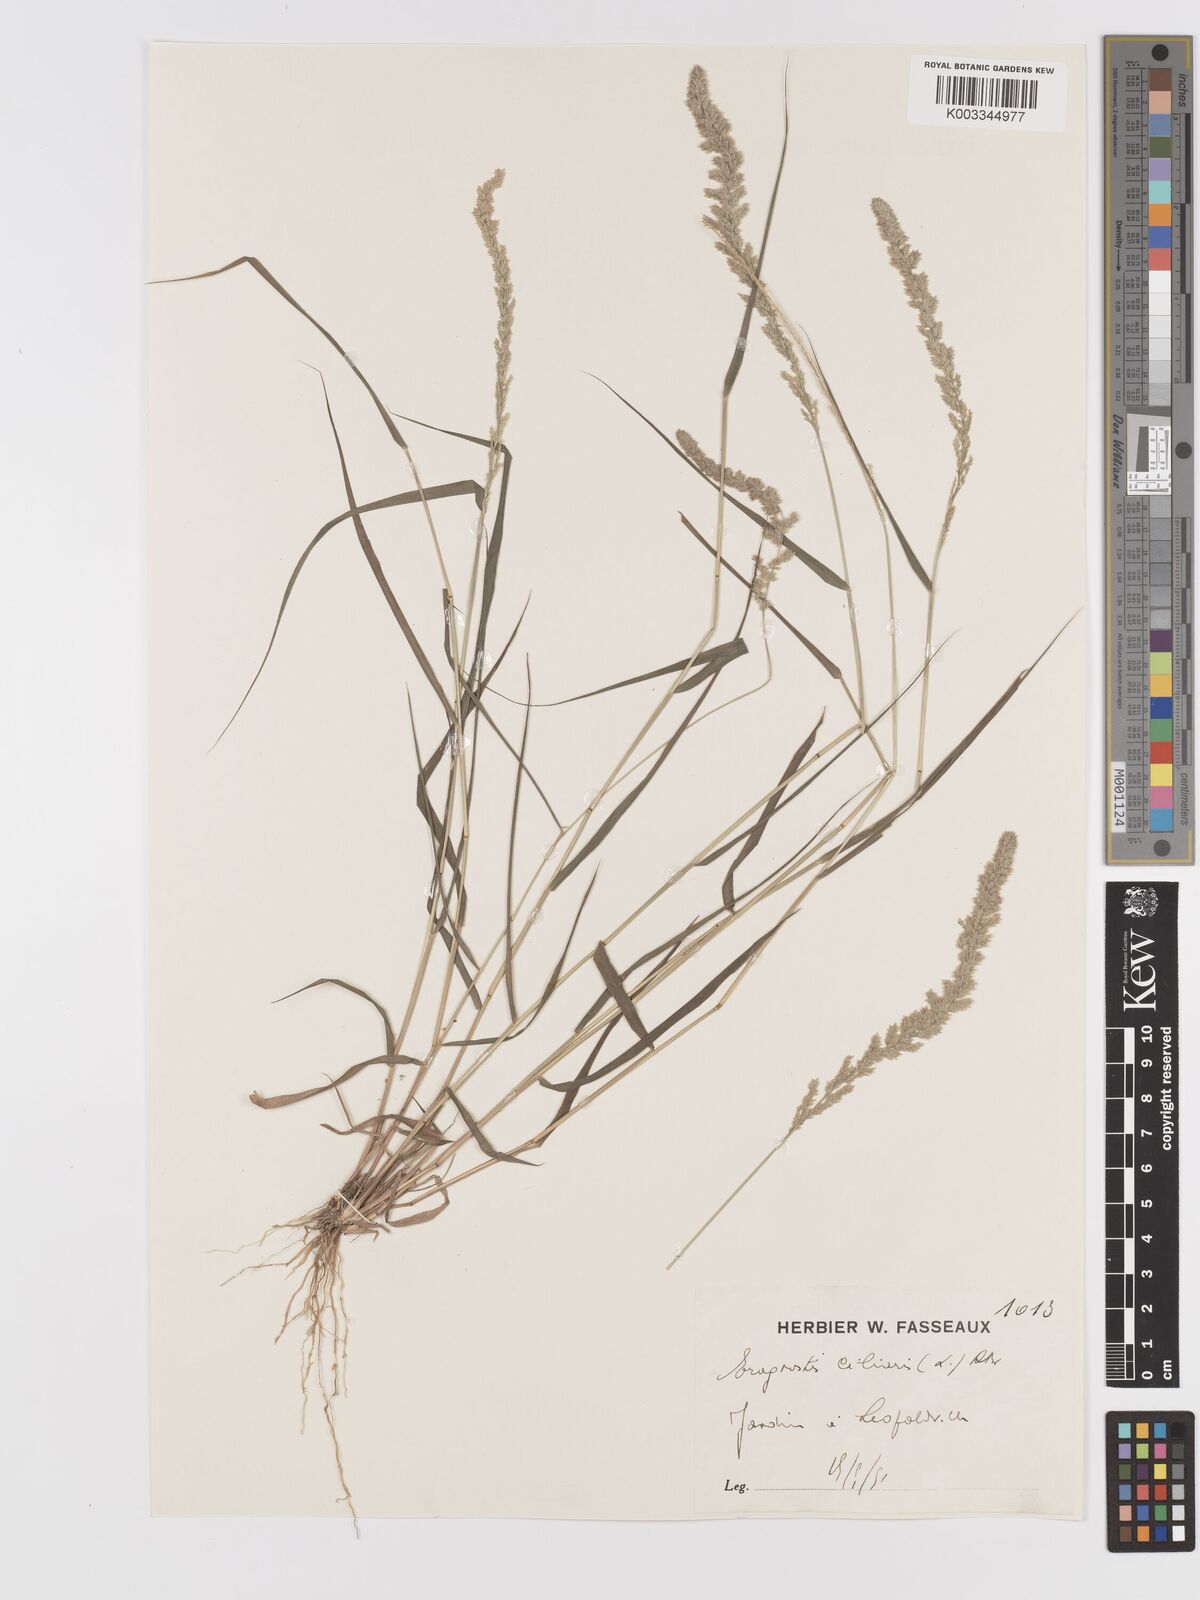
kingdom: Plantae
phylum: Tracheophyta
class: Liliopsida
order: Poales
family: Poaceae
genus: Eragrostis
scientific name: Eragrostis ciliaris
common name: Gophertail lovegrass
